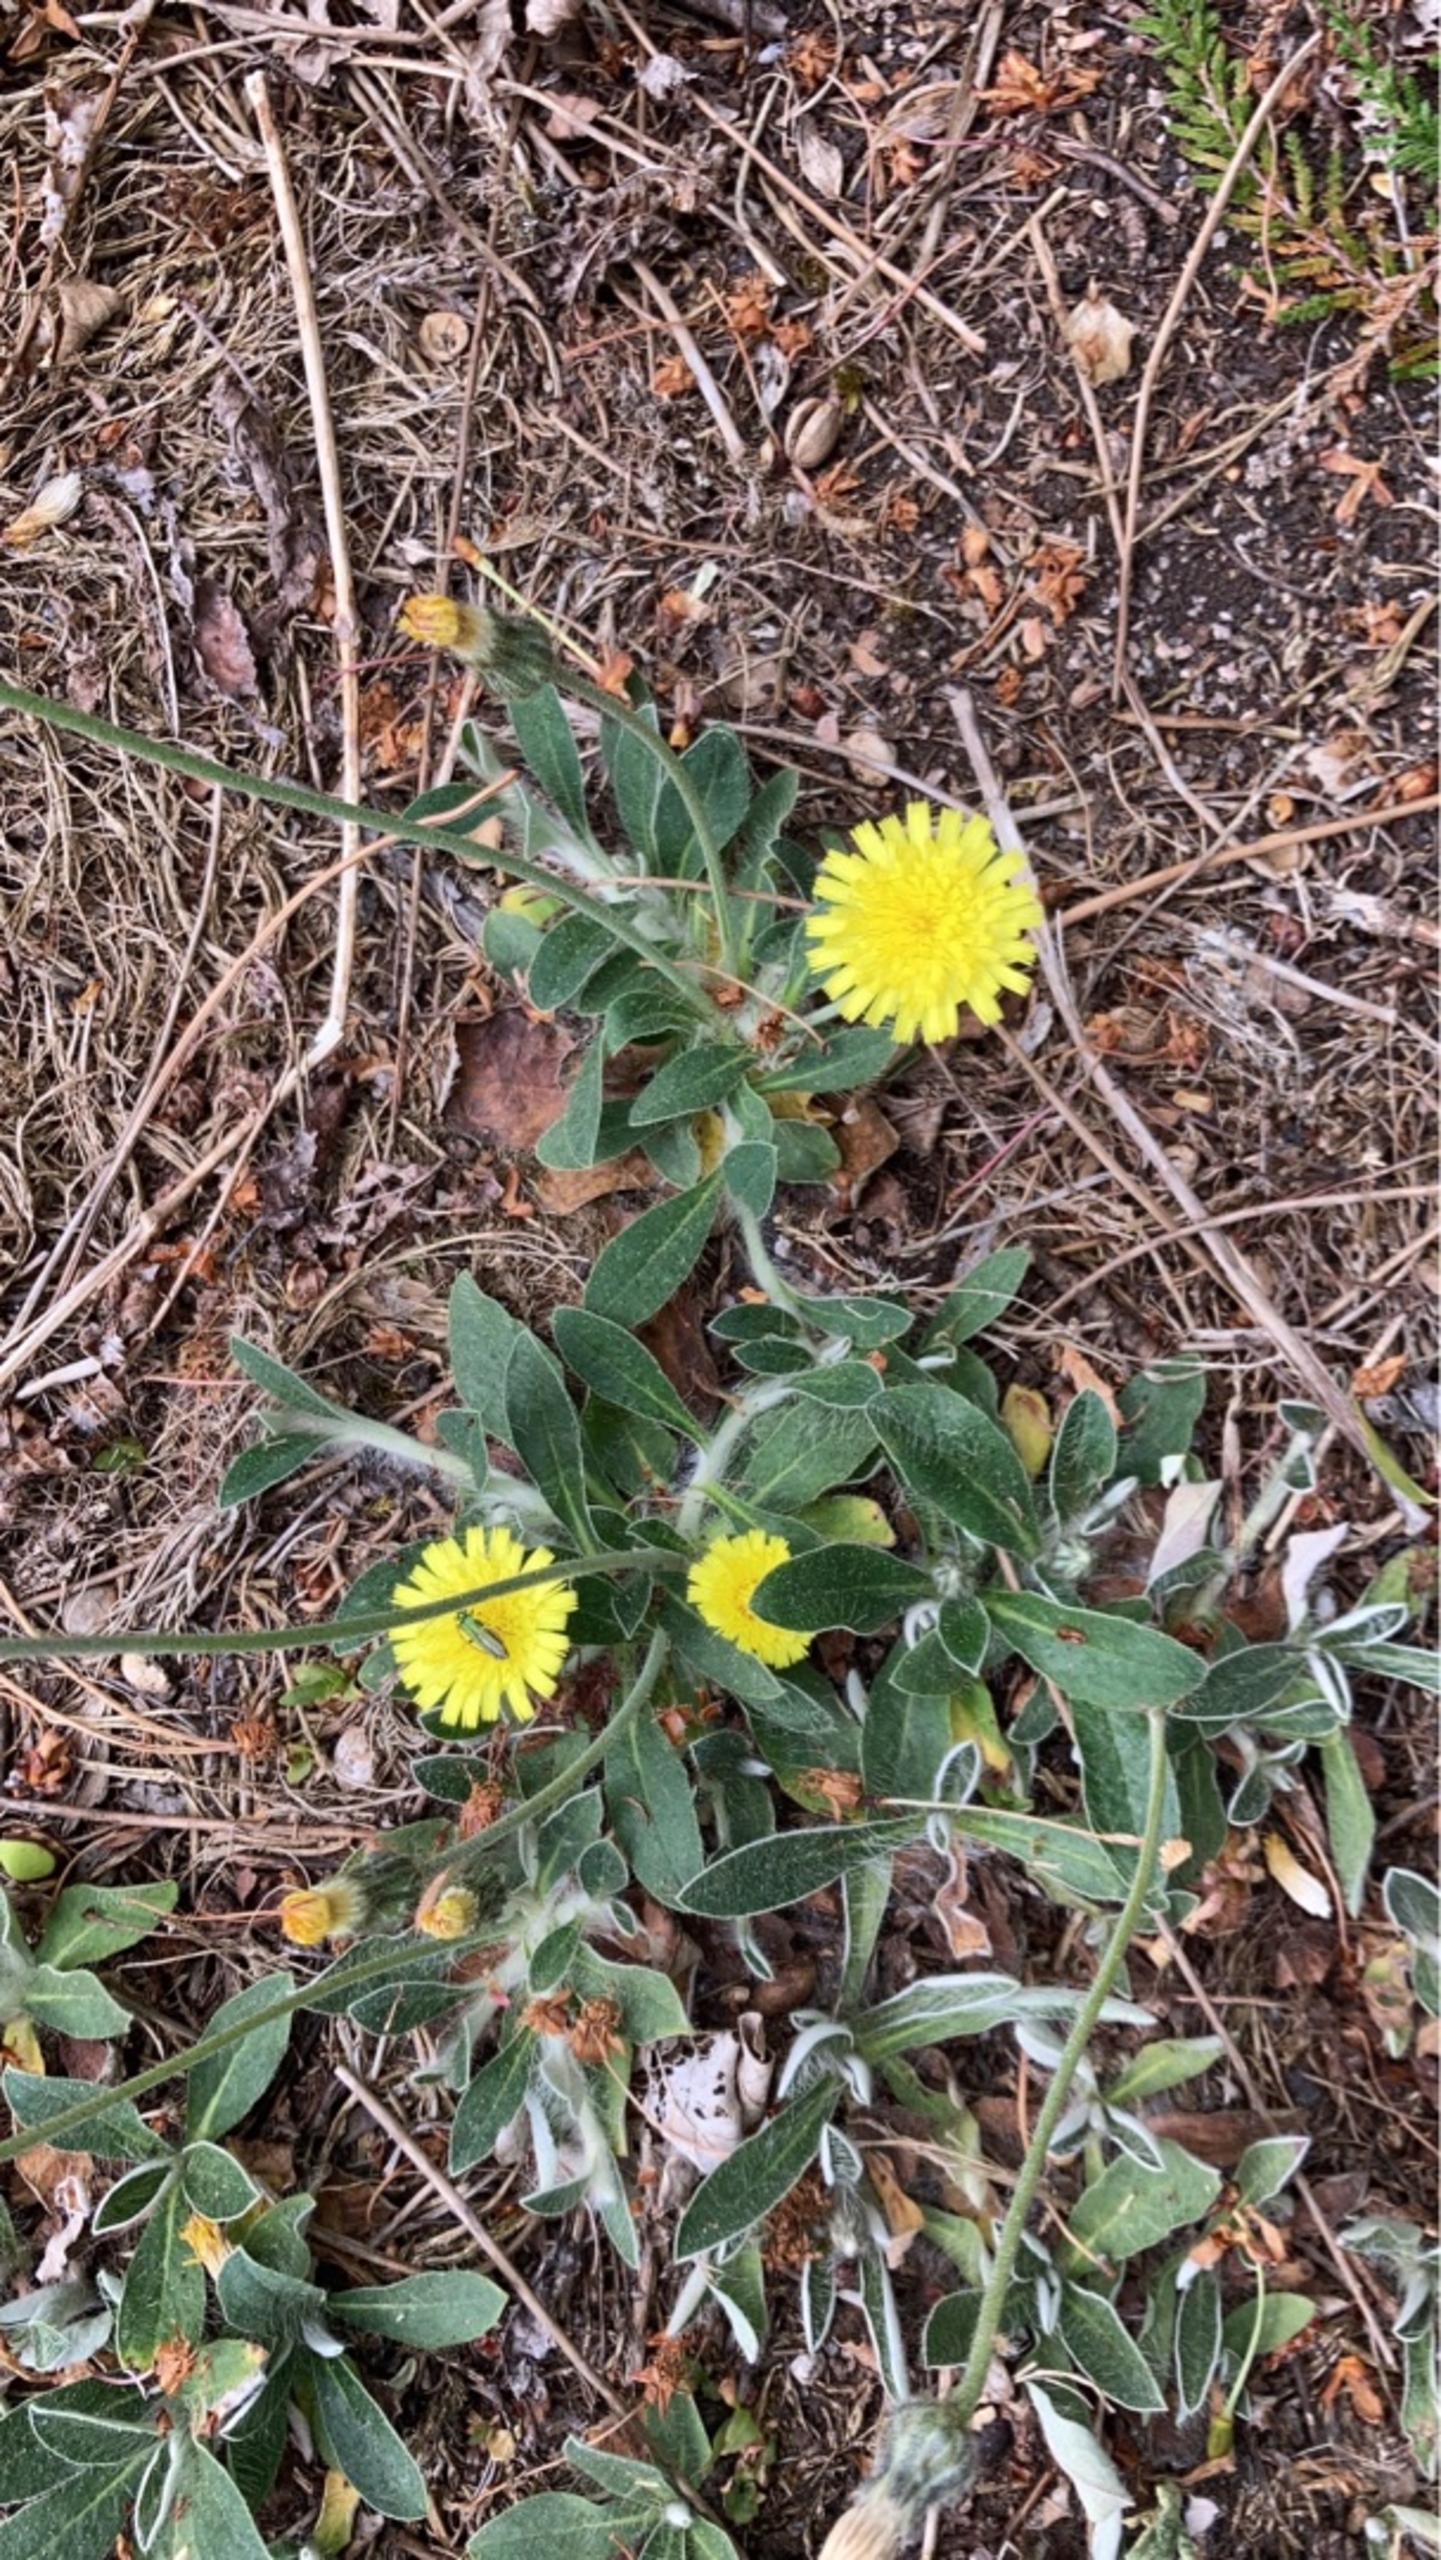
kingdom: Plantae
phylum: Tracheophyta
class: Magnoliopsida
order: Asterales
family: Asteraceae
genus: Pilosella
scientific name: Pilosella officinarum
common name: Håret høgeurt
